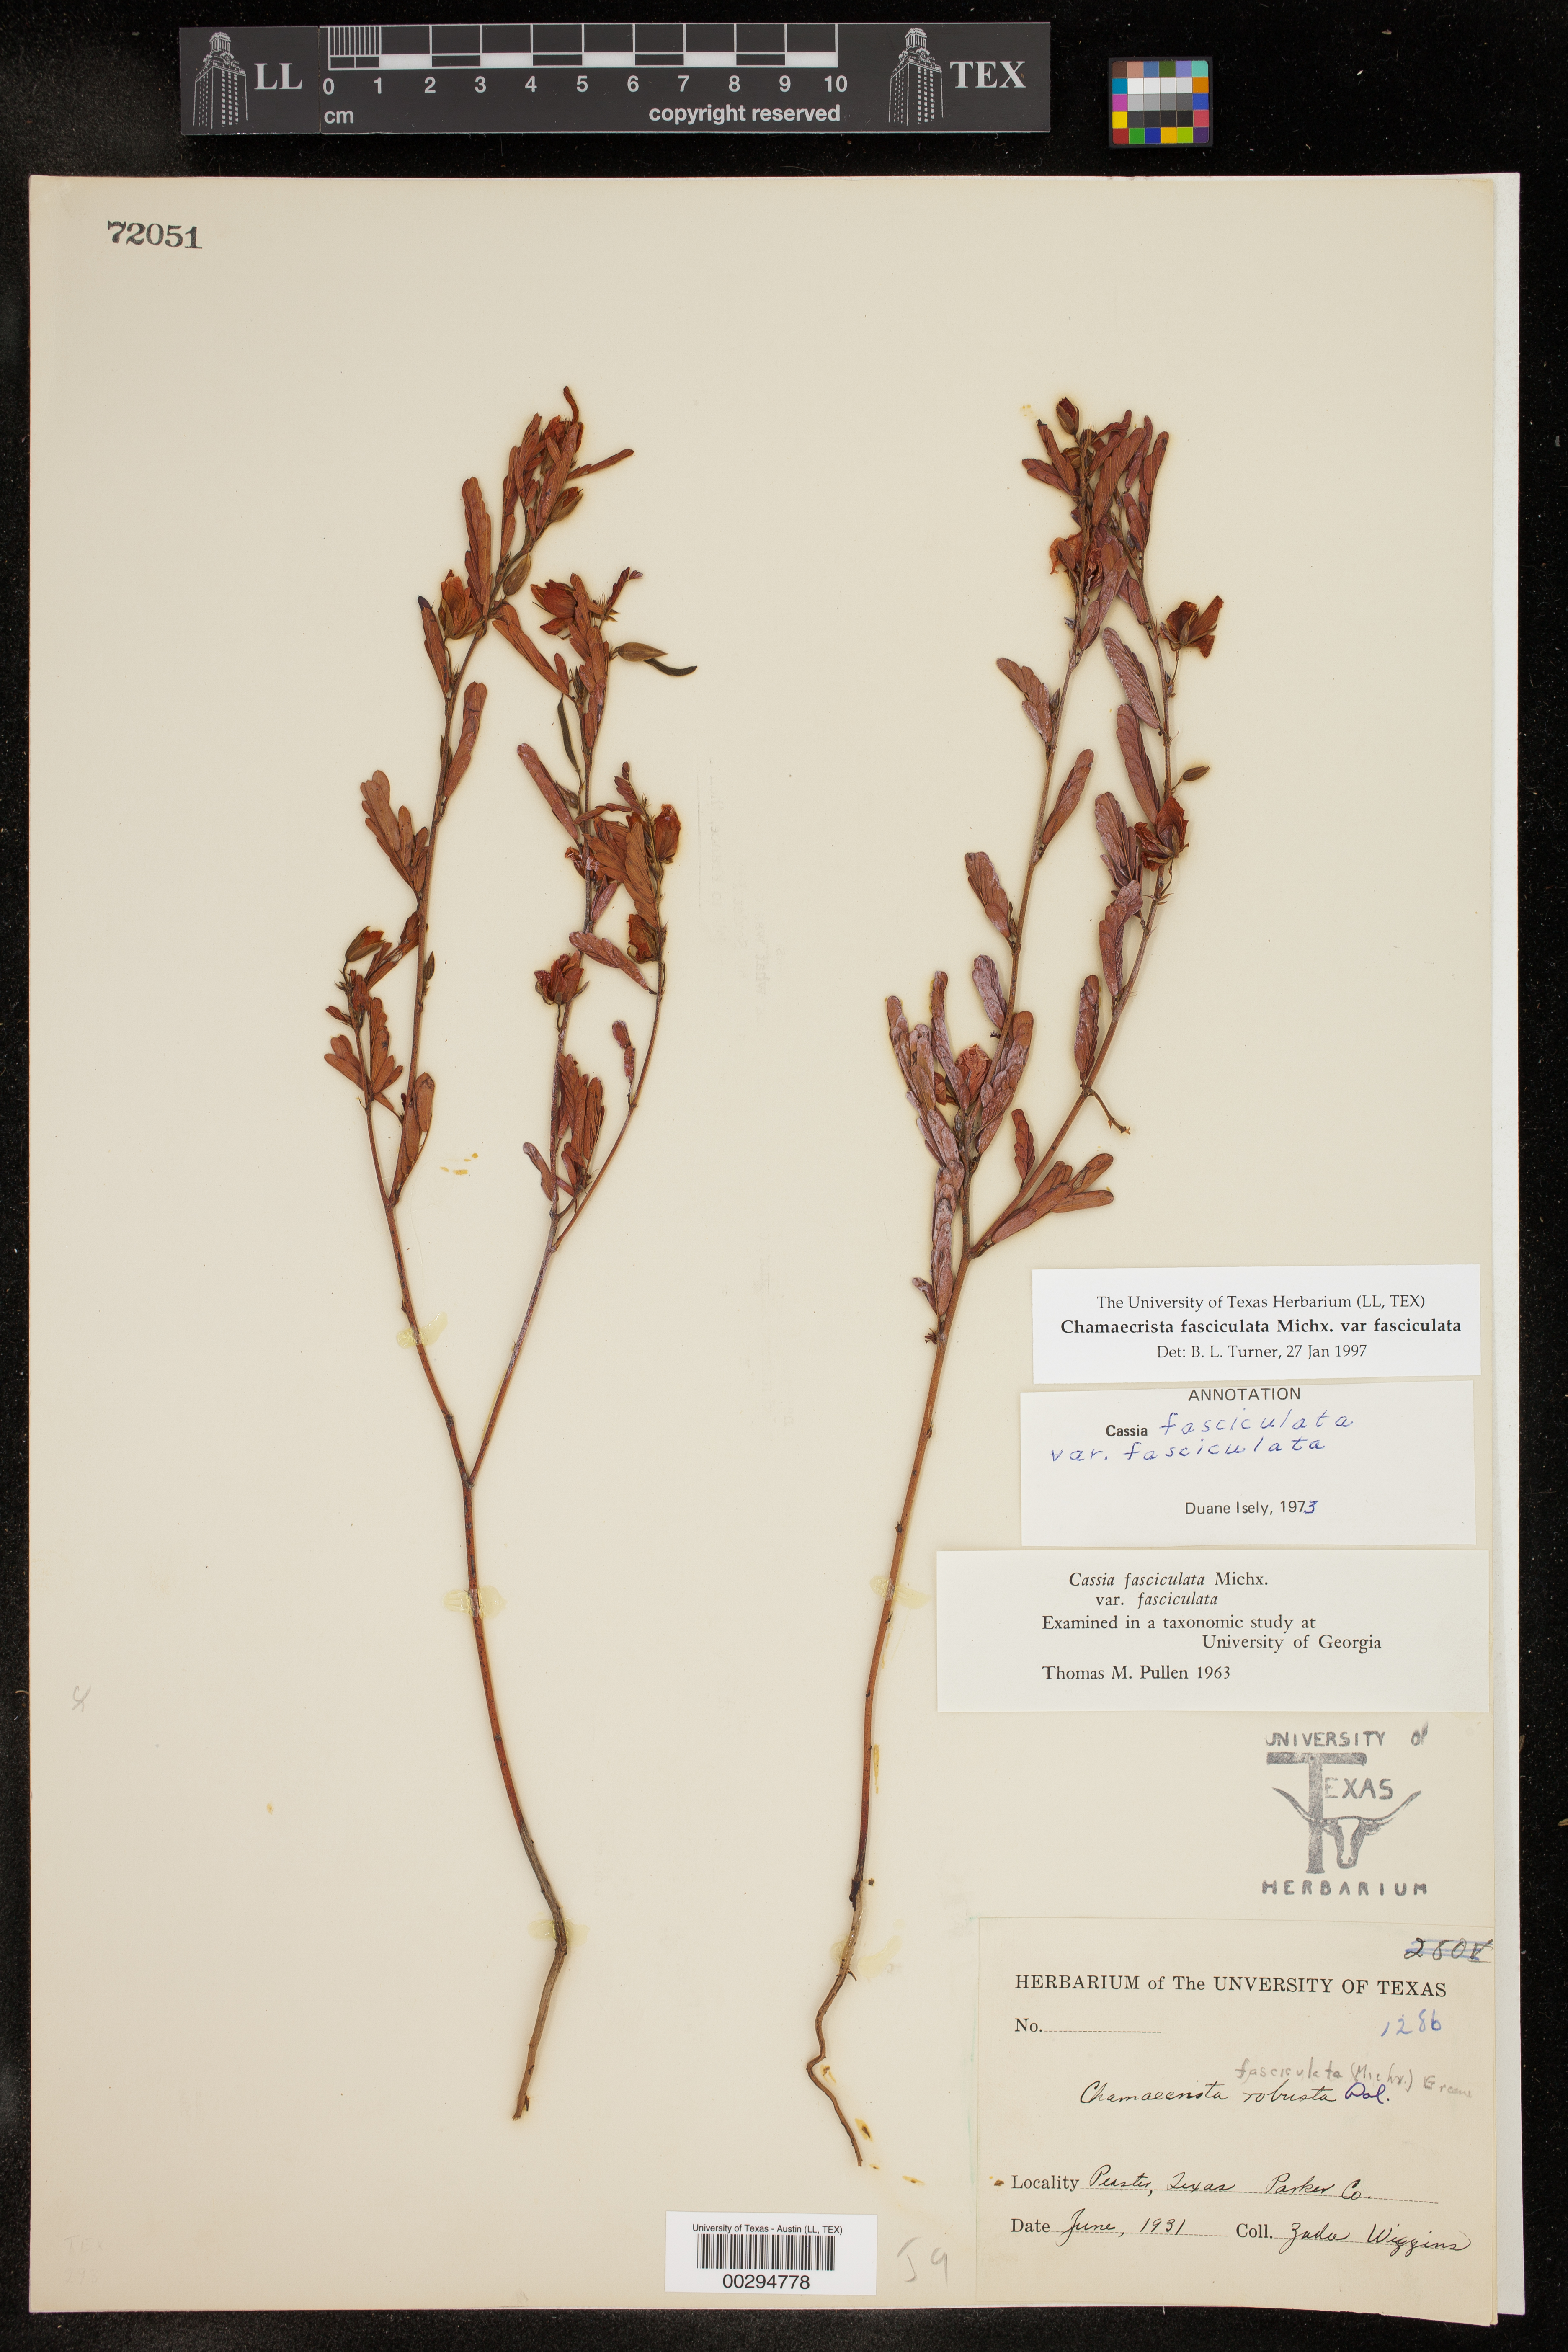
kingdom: Plantae
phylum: Tracheophyta
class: Magnoliopsida
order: Fabales
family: Fabaceae
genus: Chamaecrista
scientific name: Chamaecrista fasciculata
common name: Golden cassia
